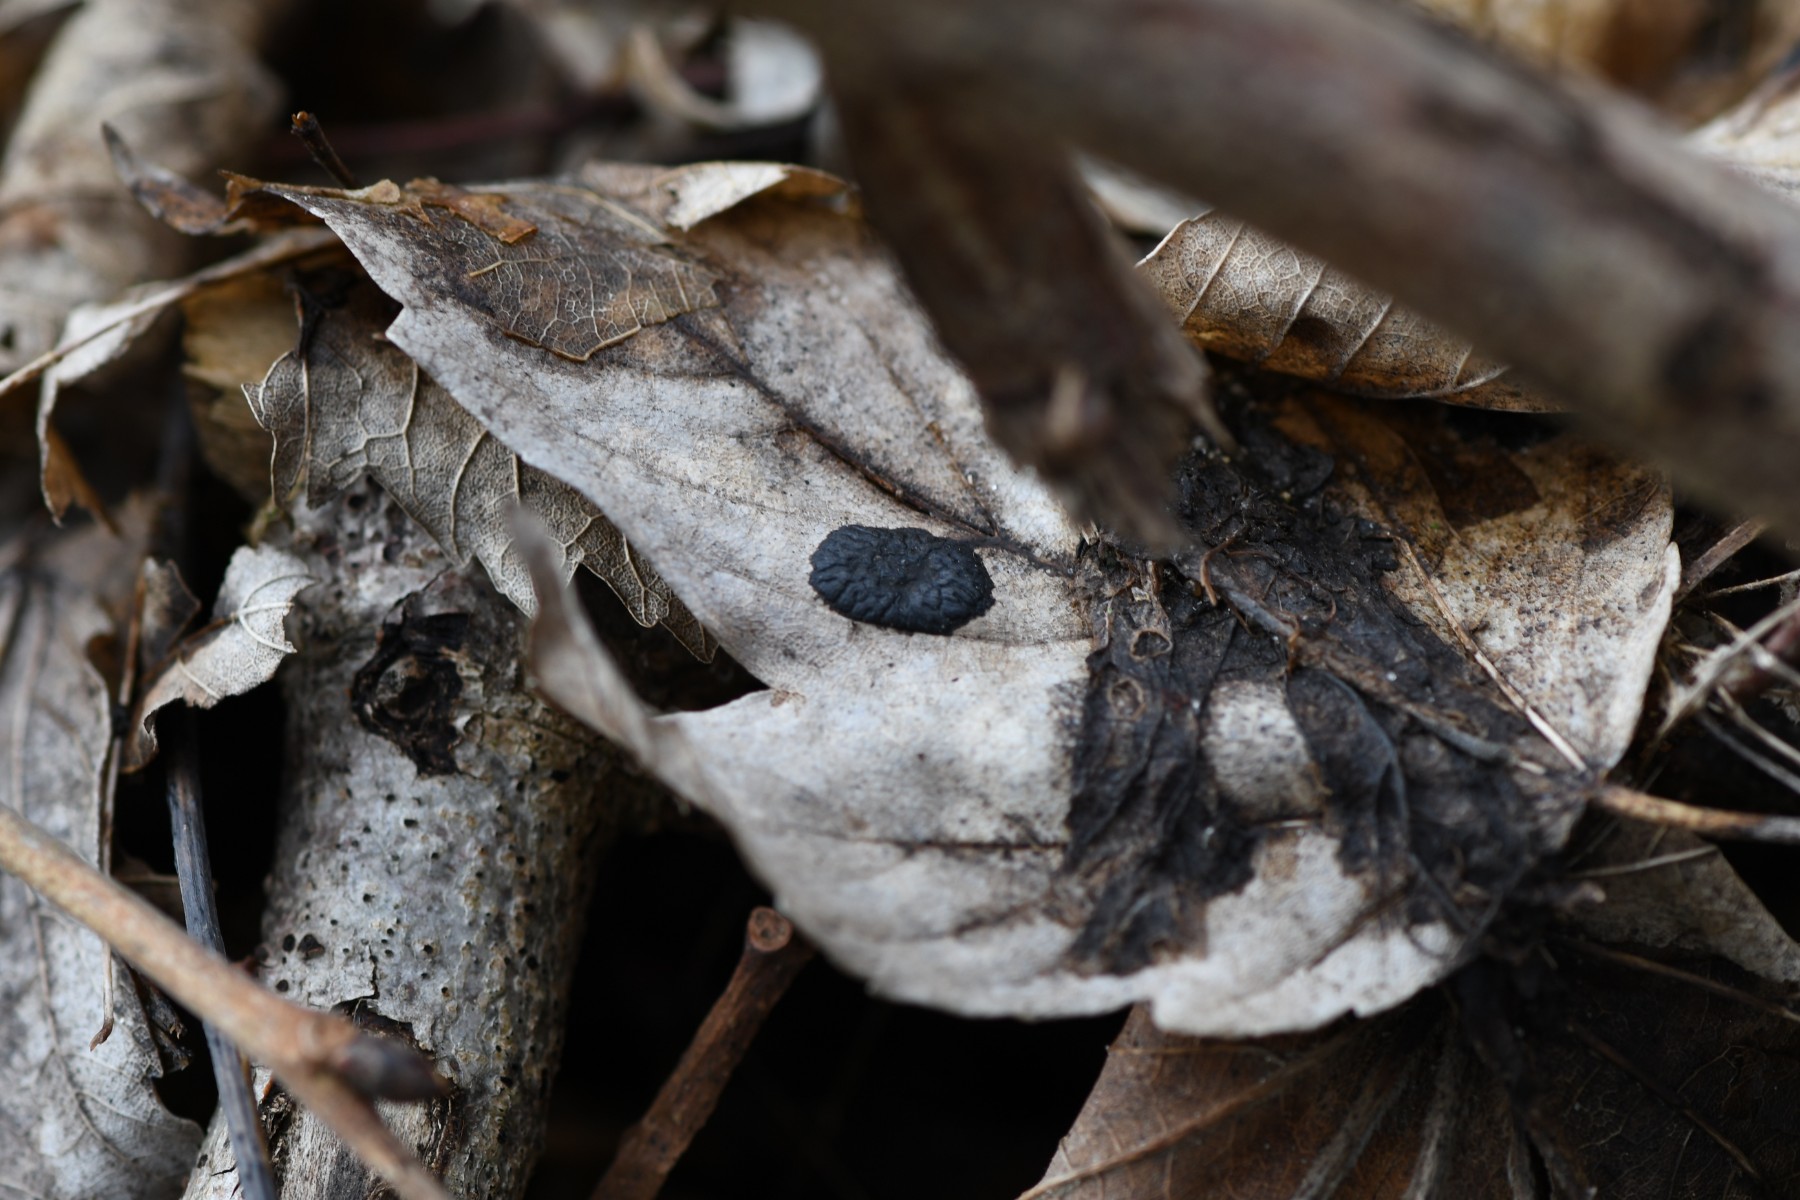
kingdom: Fungi
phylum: Ascomycota
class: Leotiomycetes
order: Rhytismatales
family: Rhytismataceae
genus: Rhytisma
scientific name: Rhytisma acerinum
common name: ahorn-rynkeplet
